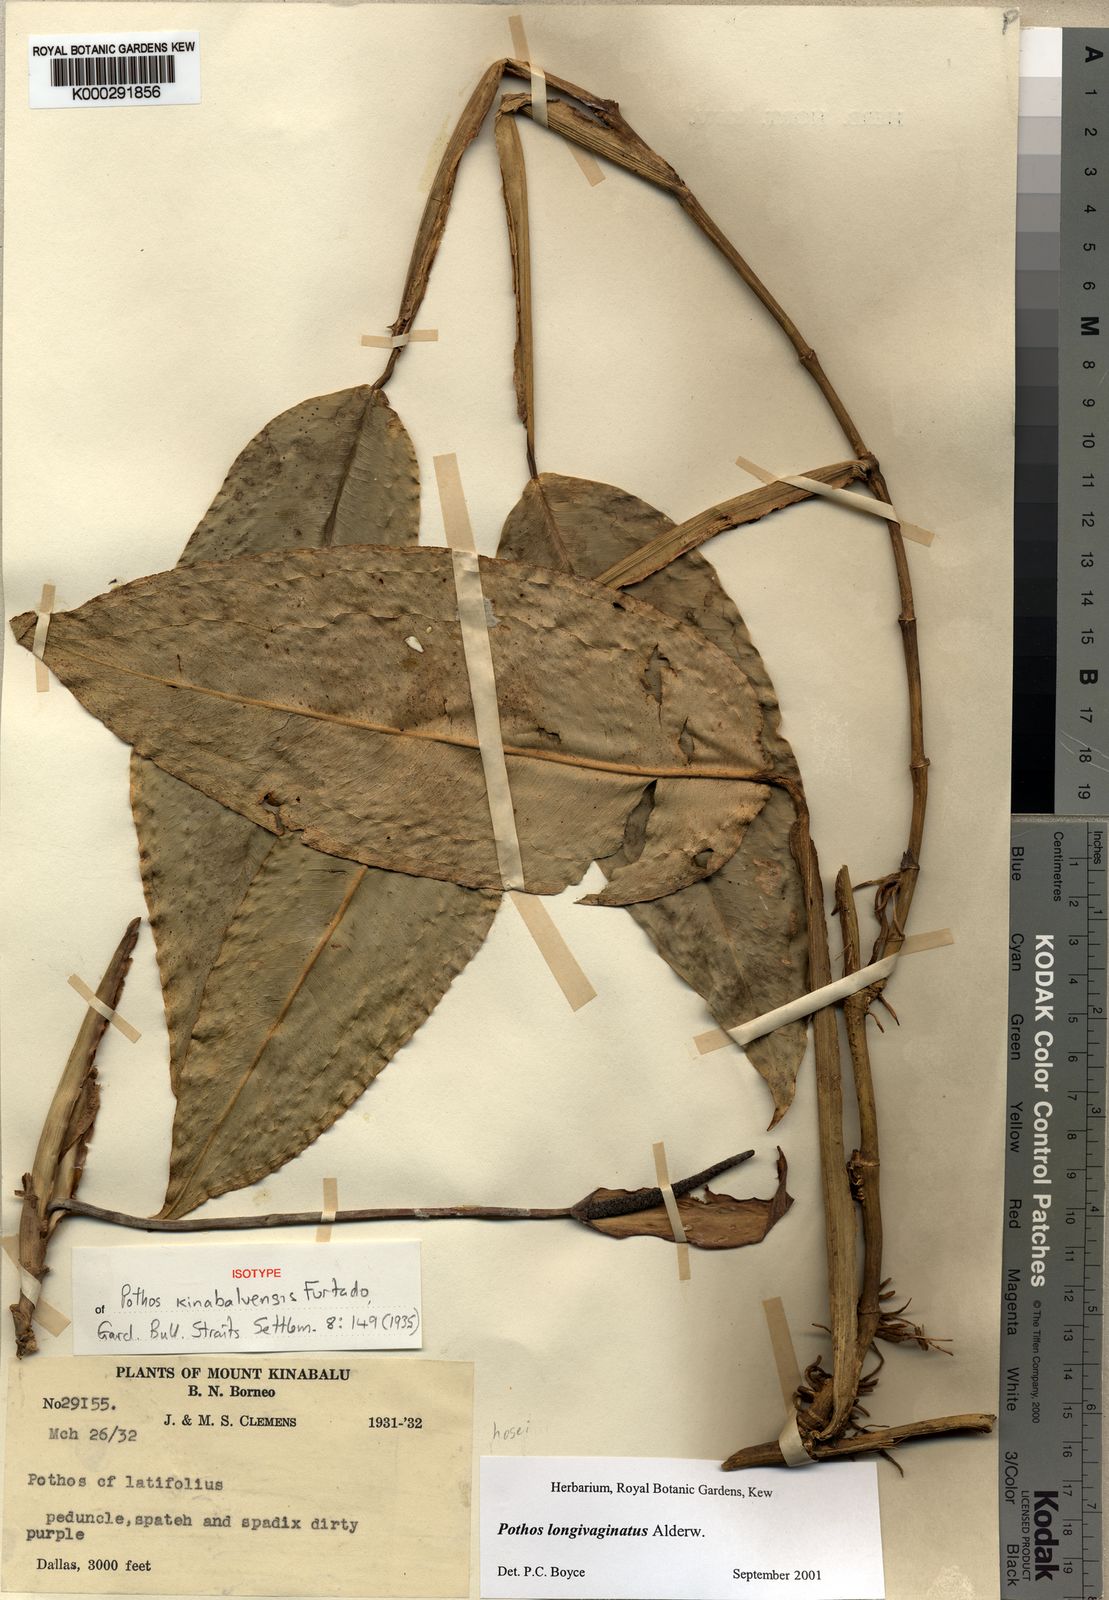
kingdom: Plantae
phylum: Tracheophyta
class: Liliopsida
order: Alismatales
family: Araceae
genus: Pothos
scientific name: Pothos longivaginatus
